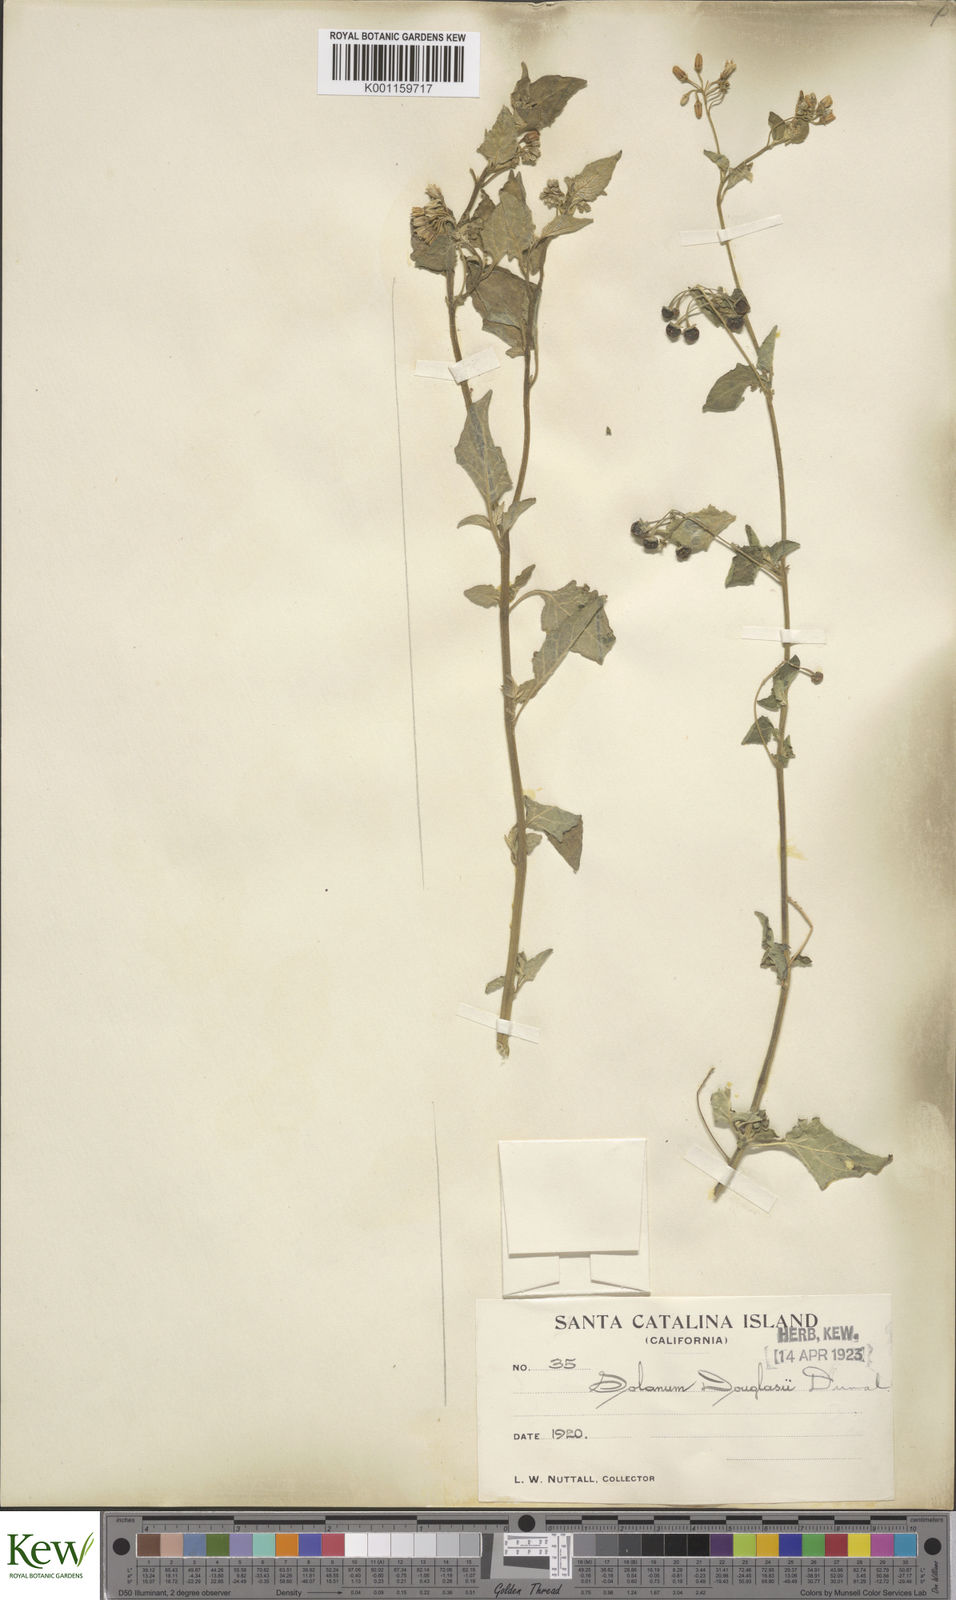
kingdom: Plantae
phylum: Tracheophyta
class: Magnoliopsida
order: Solanales
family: Solanaceae
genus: Solanum
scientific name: Solanum douglasii
